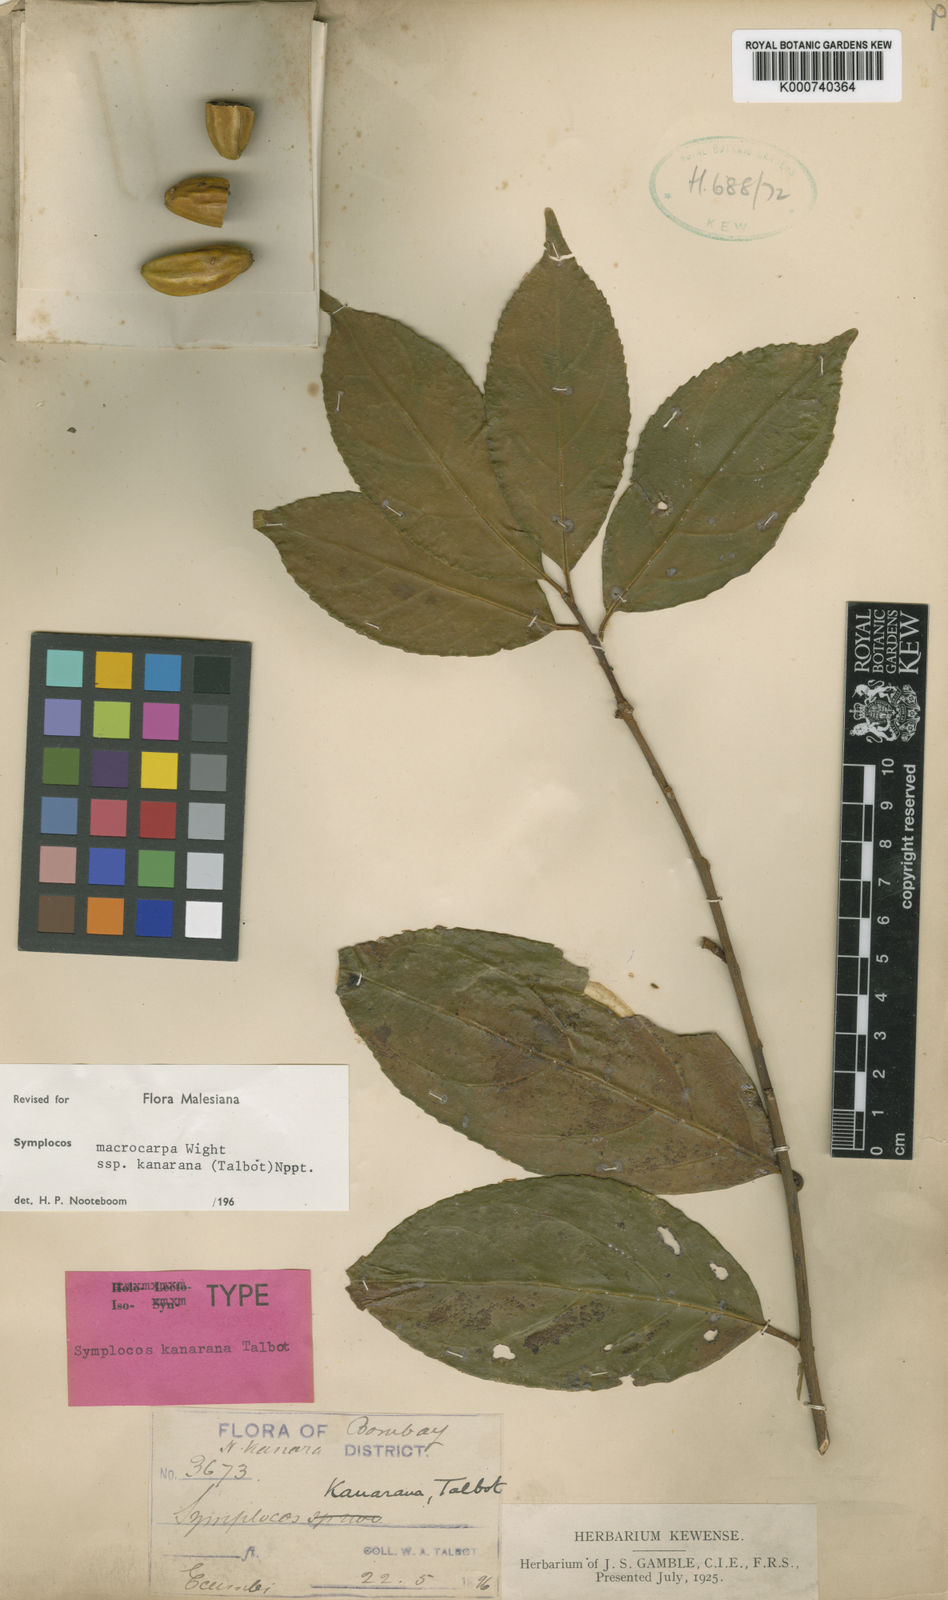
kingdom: Plantae
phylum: Tracheophyta
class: Magnoliopsida
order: Ericales
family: Symplocaceae
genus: Symplocos
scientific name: Symplocos macrocarpa
